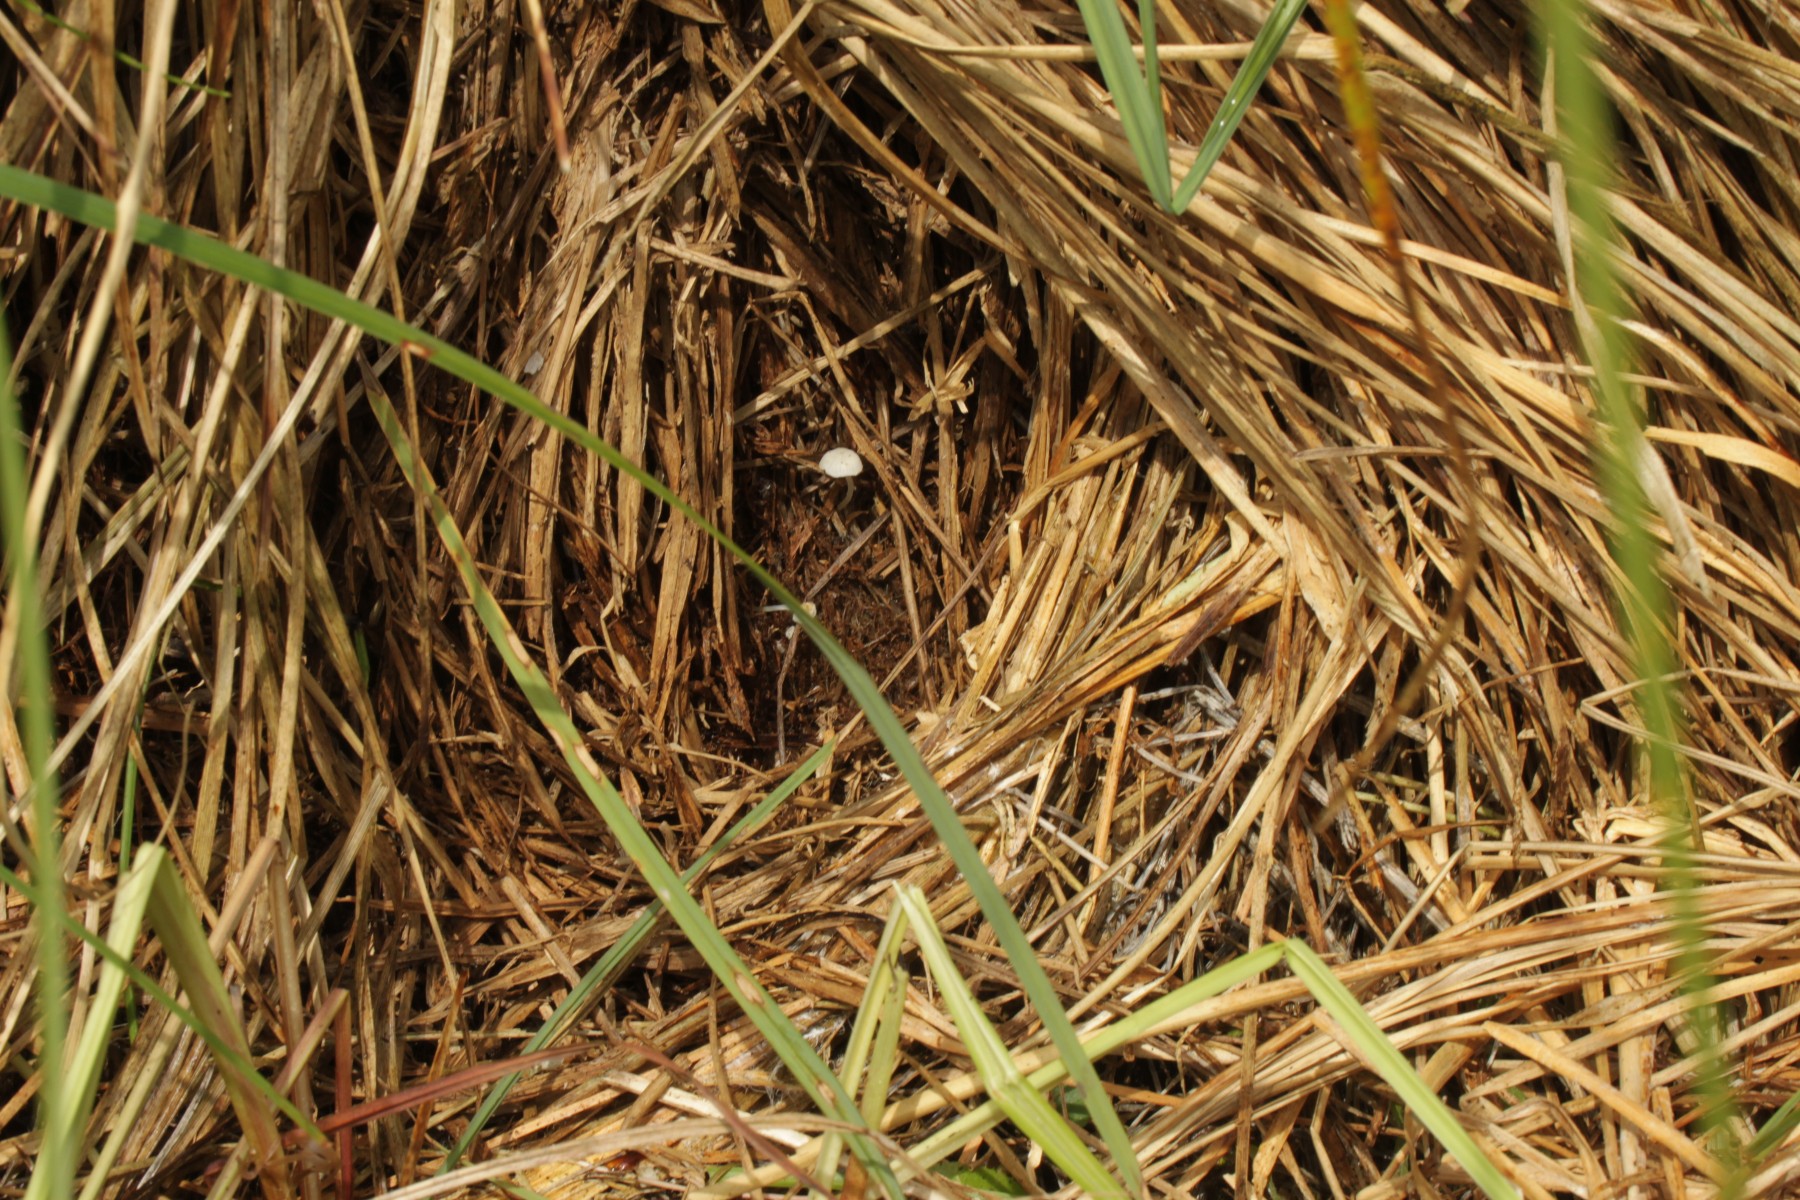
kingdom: Fungi
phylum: Basidiomycota
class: Agaricomycetes
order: Agaricales
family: Mycenaceae
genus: Hemimycena
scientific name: Hemimycena
